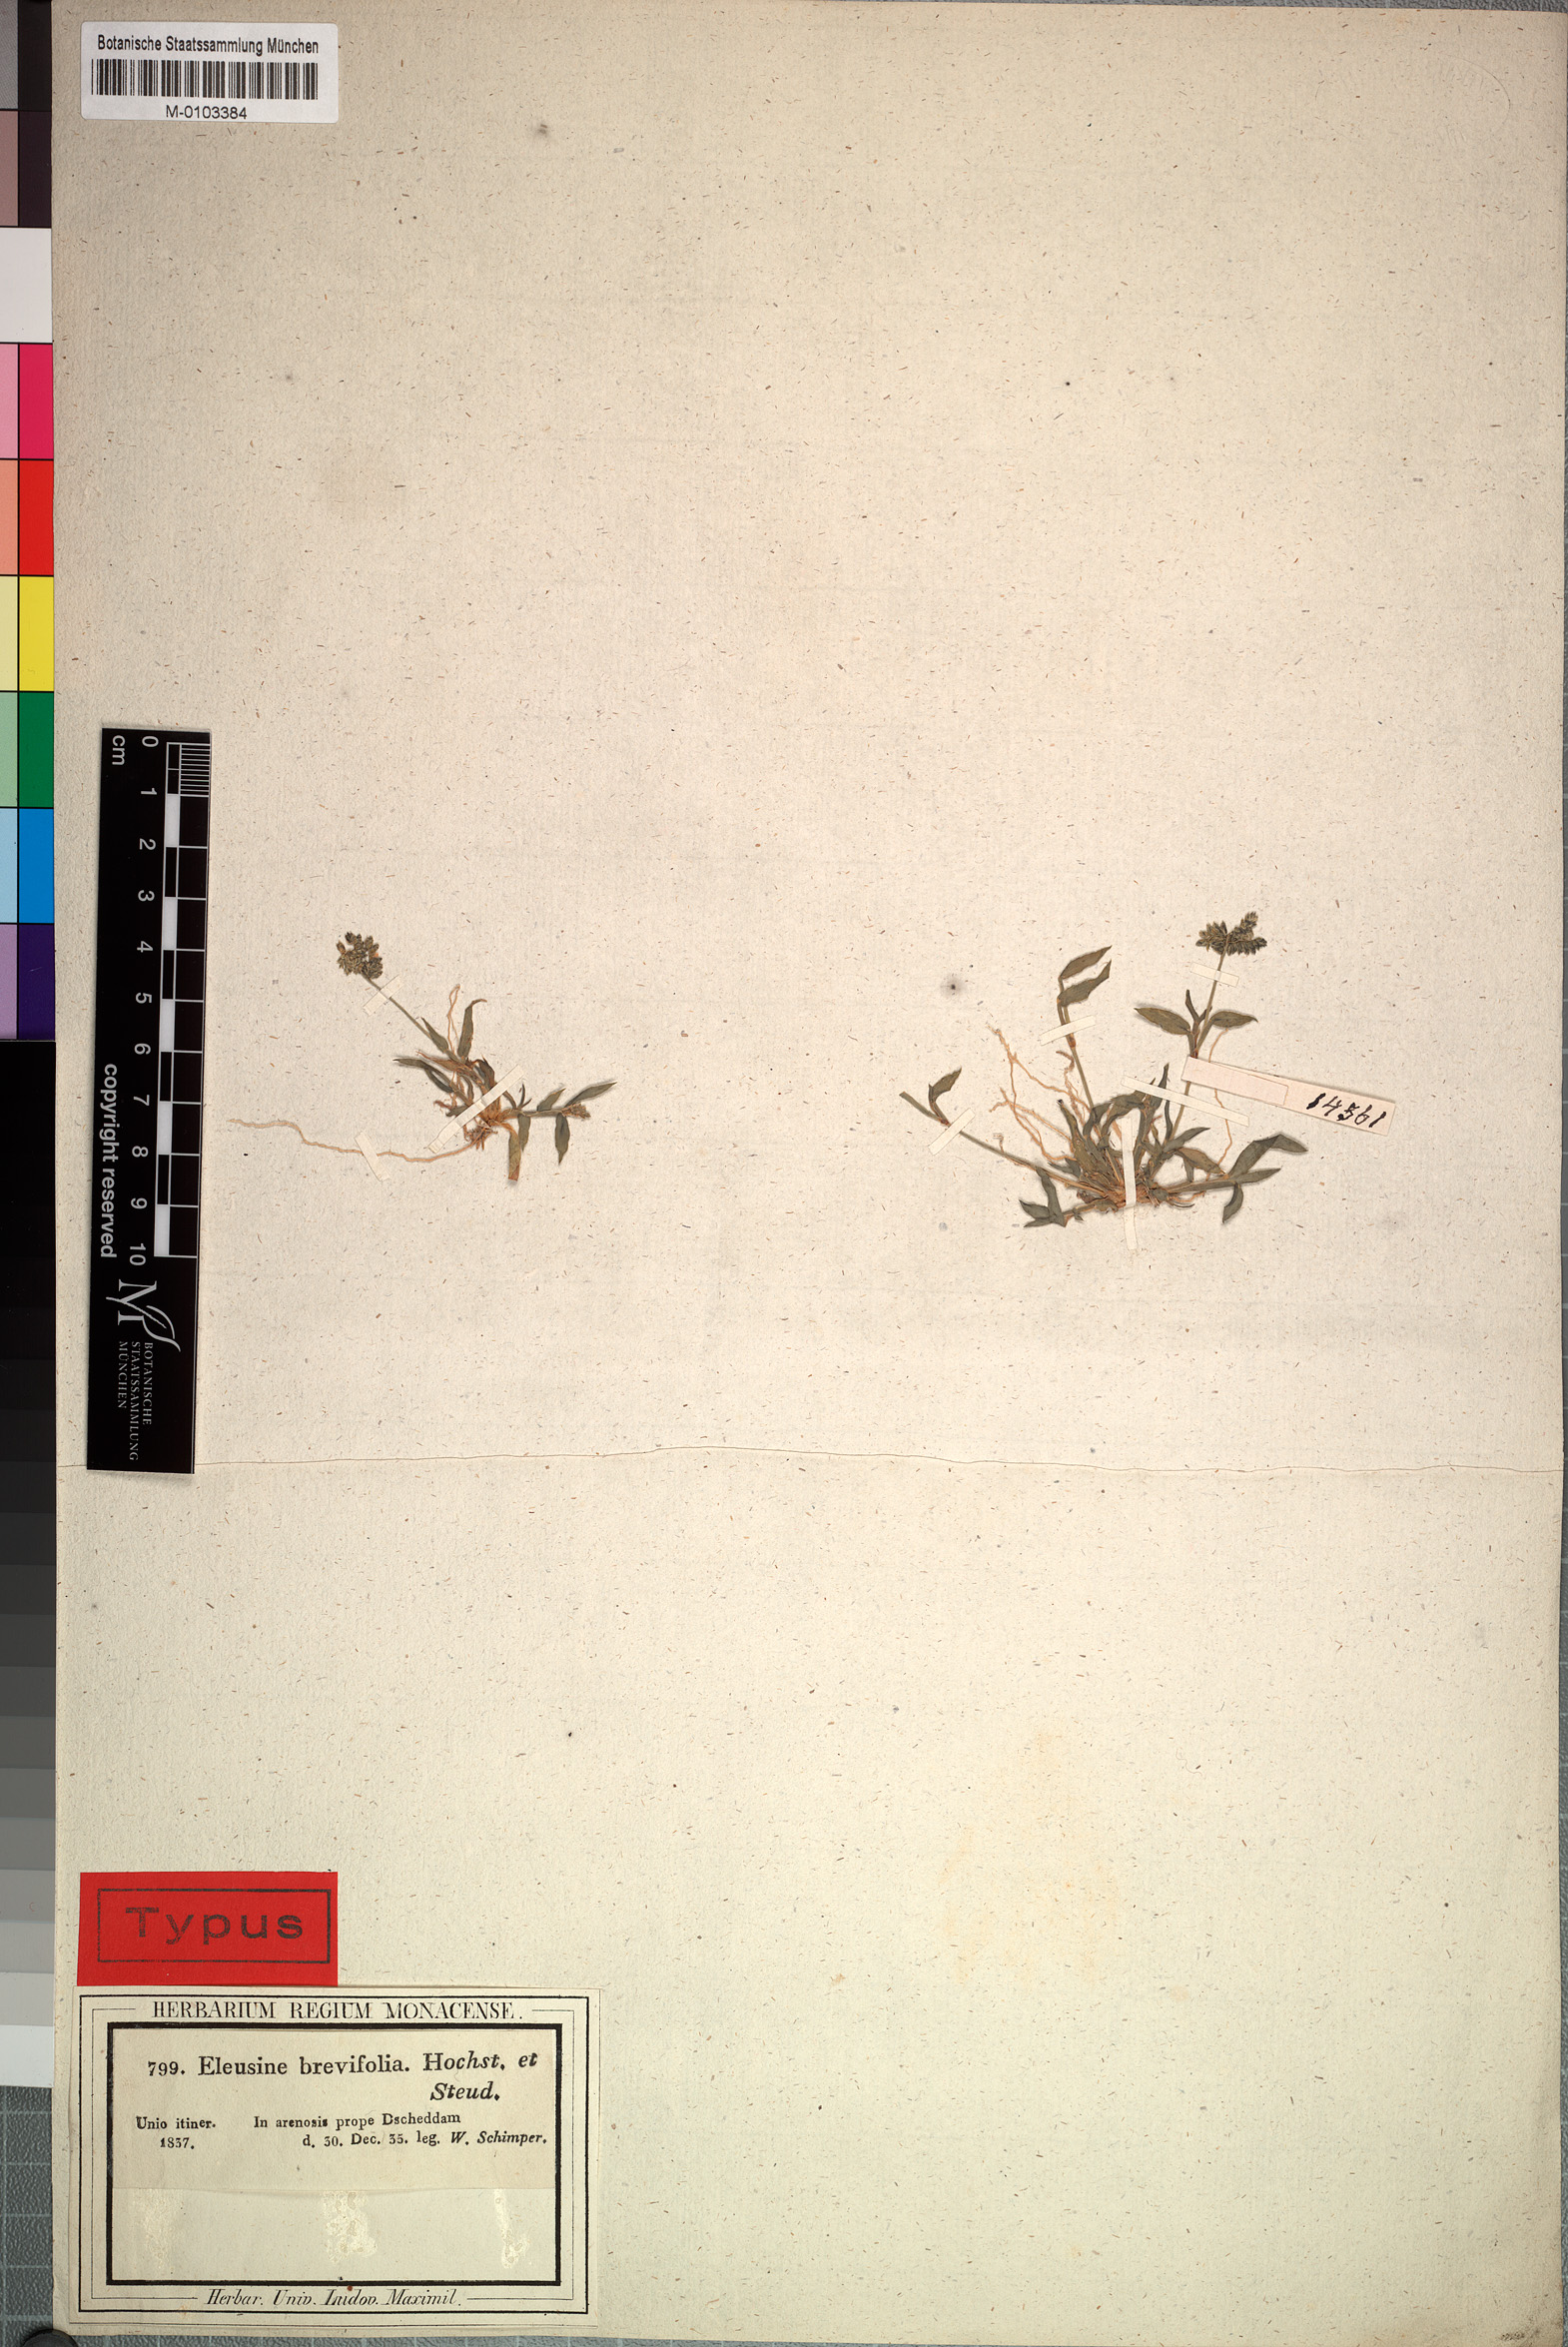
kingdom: Plantae
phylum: Tracheophyta
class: Liliopsida
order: Poales
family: Poaceae
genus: Coelachyrum
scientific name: Coelachyrum brevifolium
